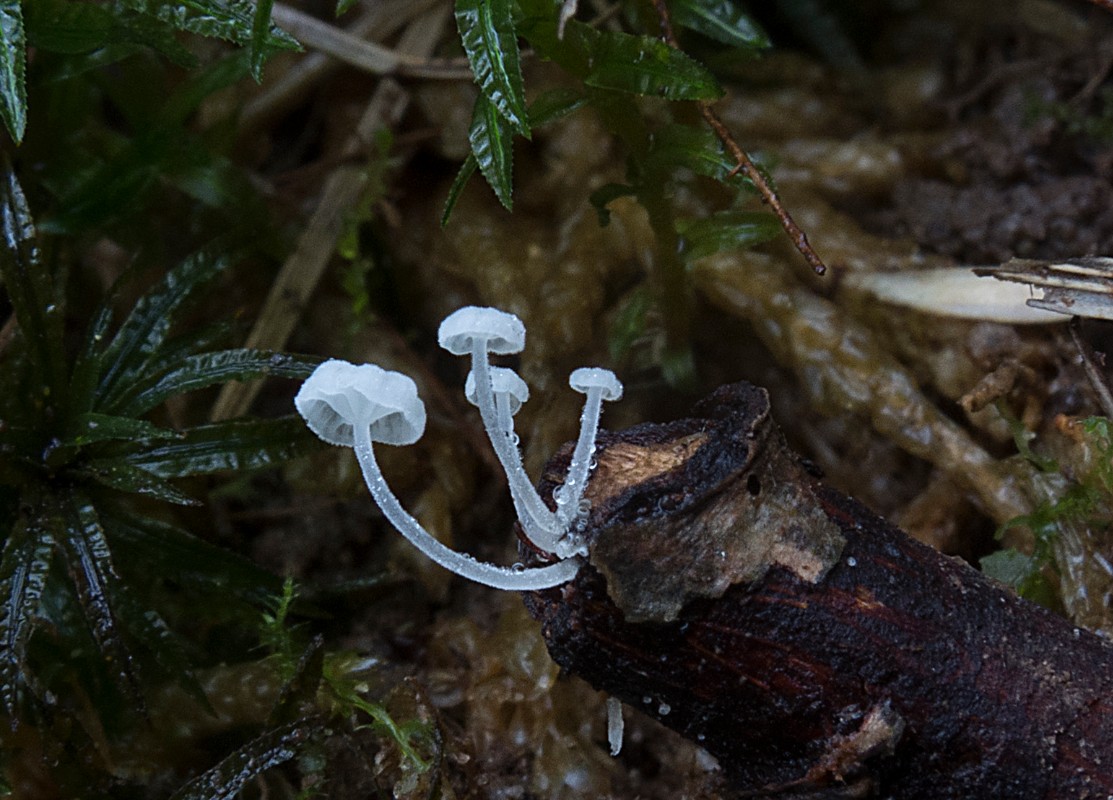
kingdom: Fungi
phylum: Basidiomycota
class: Agaricomycetes
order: Agaricales
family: Mycenaceae
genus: Hemimycena
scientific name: Hemimycena subtilis
